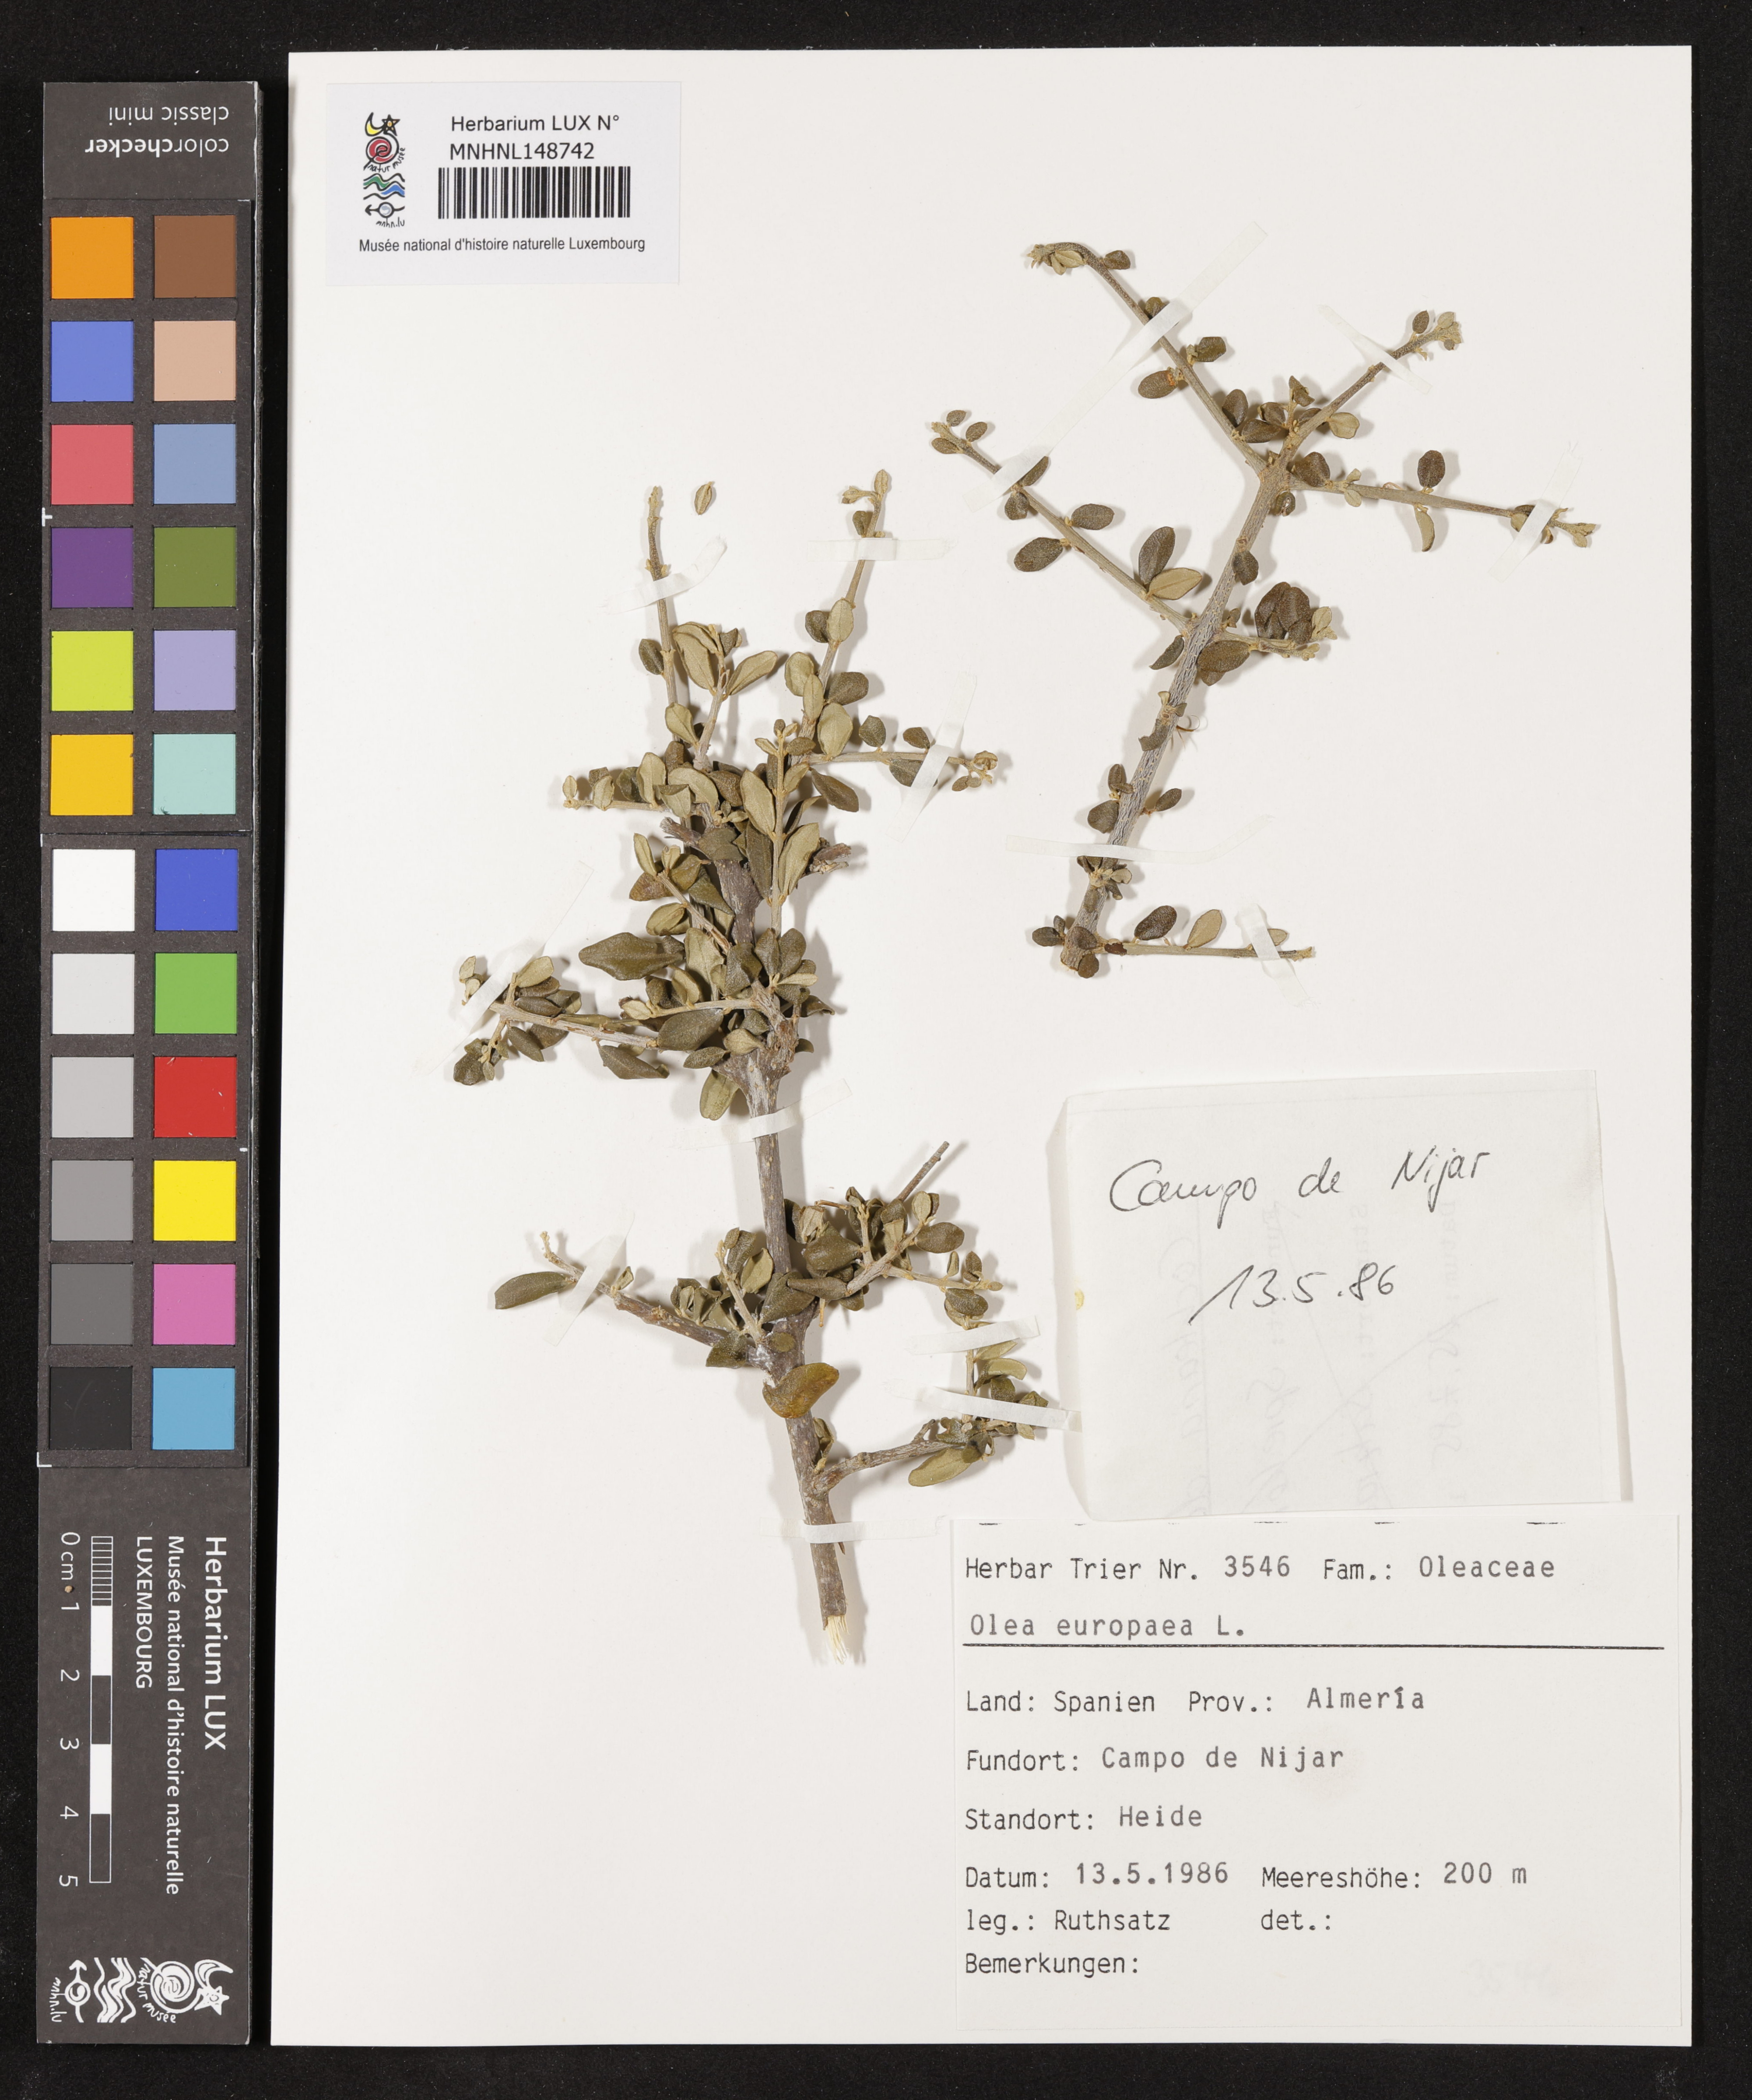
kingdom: Plantae
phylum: Tracheophyta
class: Magnoliopsida
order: Lamiales
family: Oleaceae
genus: Olea
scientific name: Olea europaea
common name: Olive
